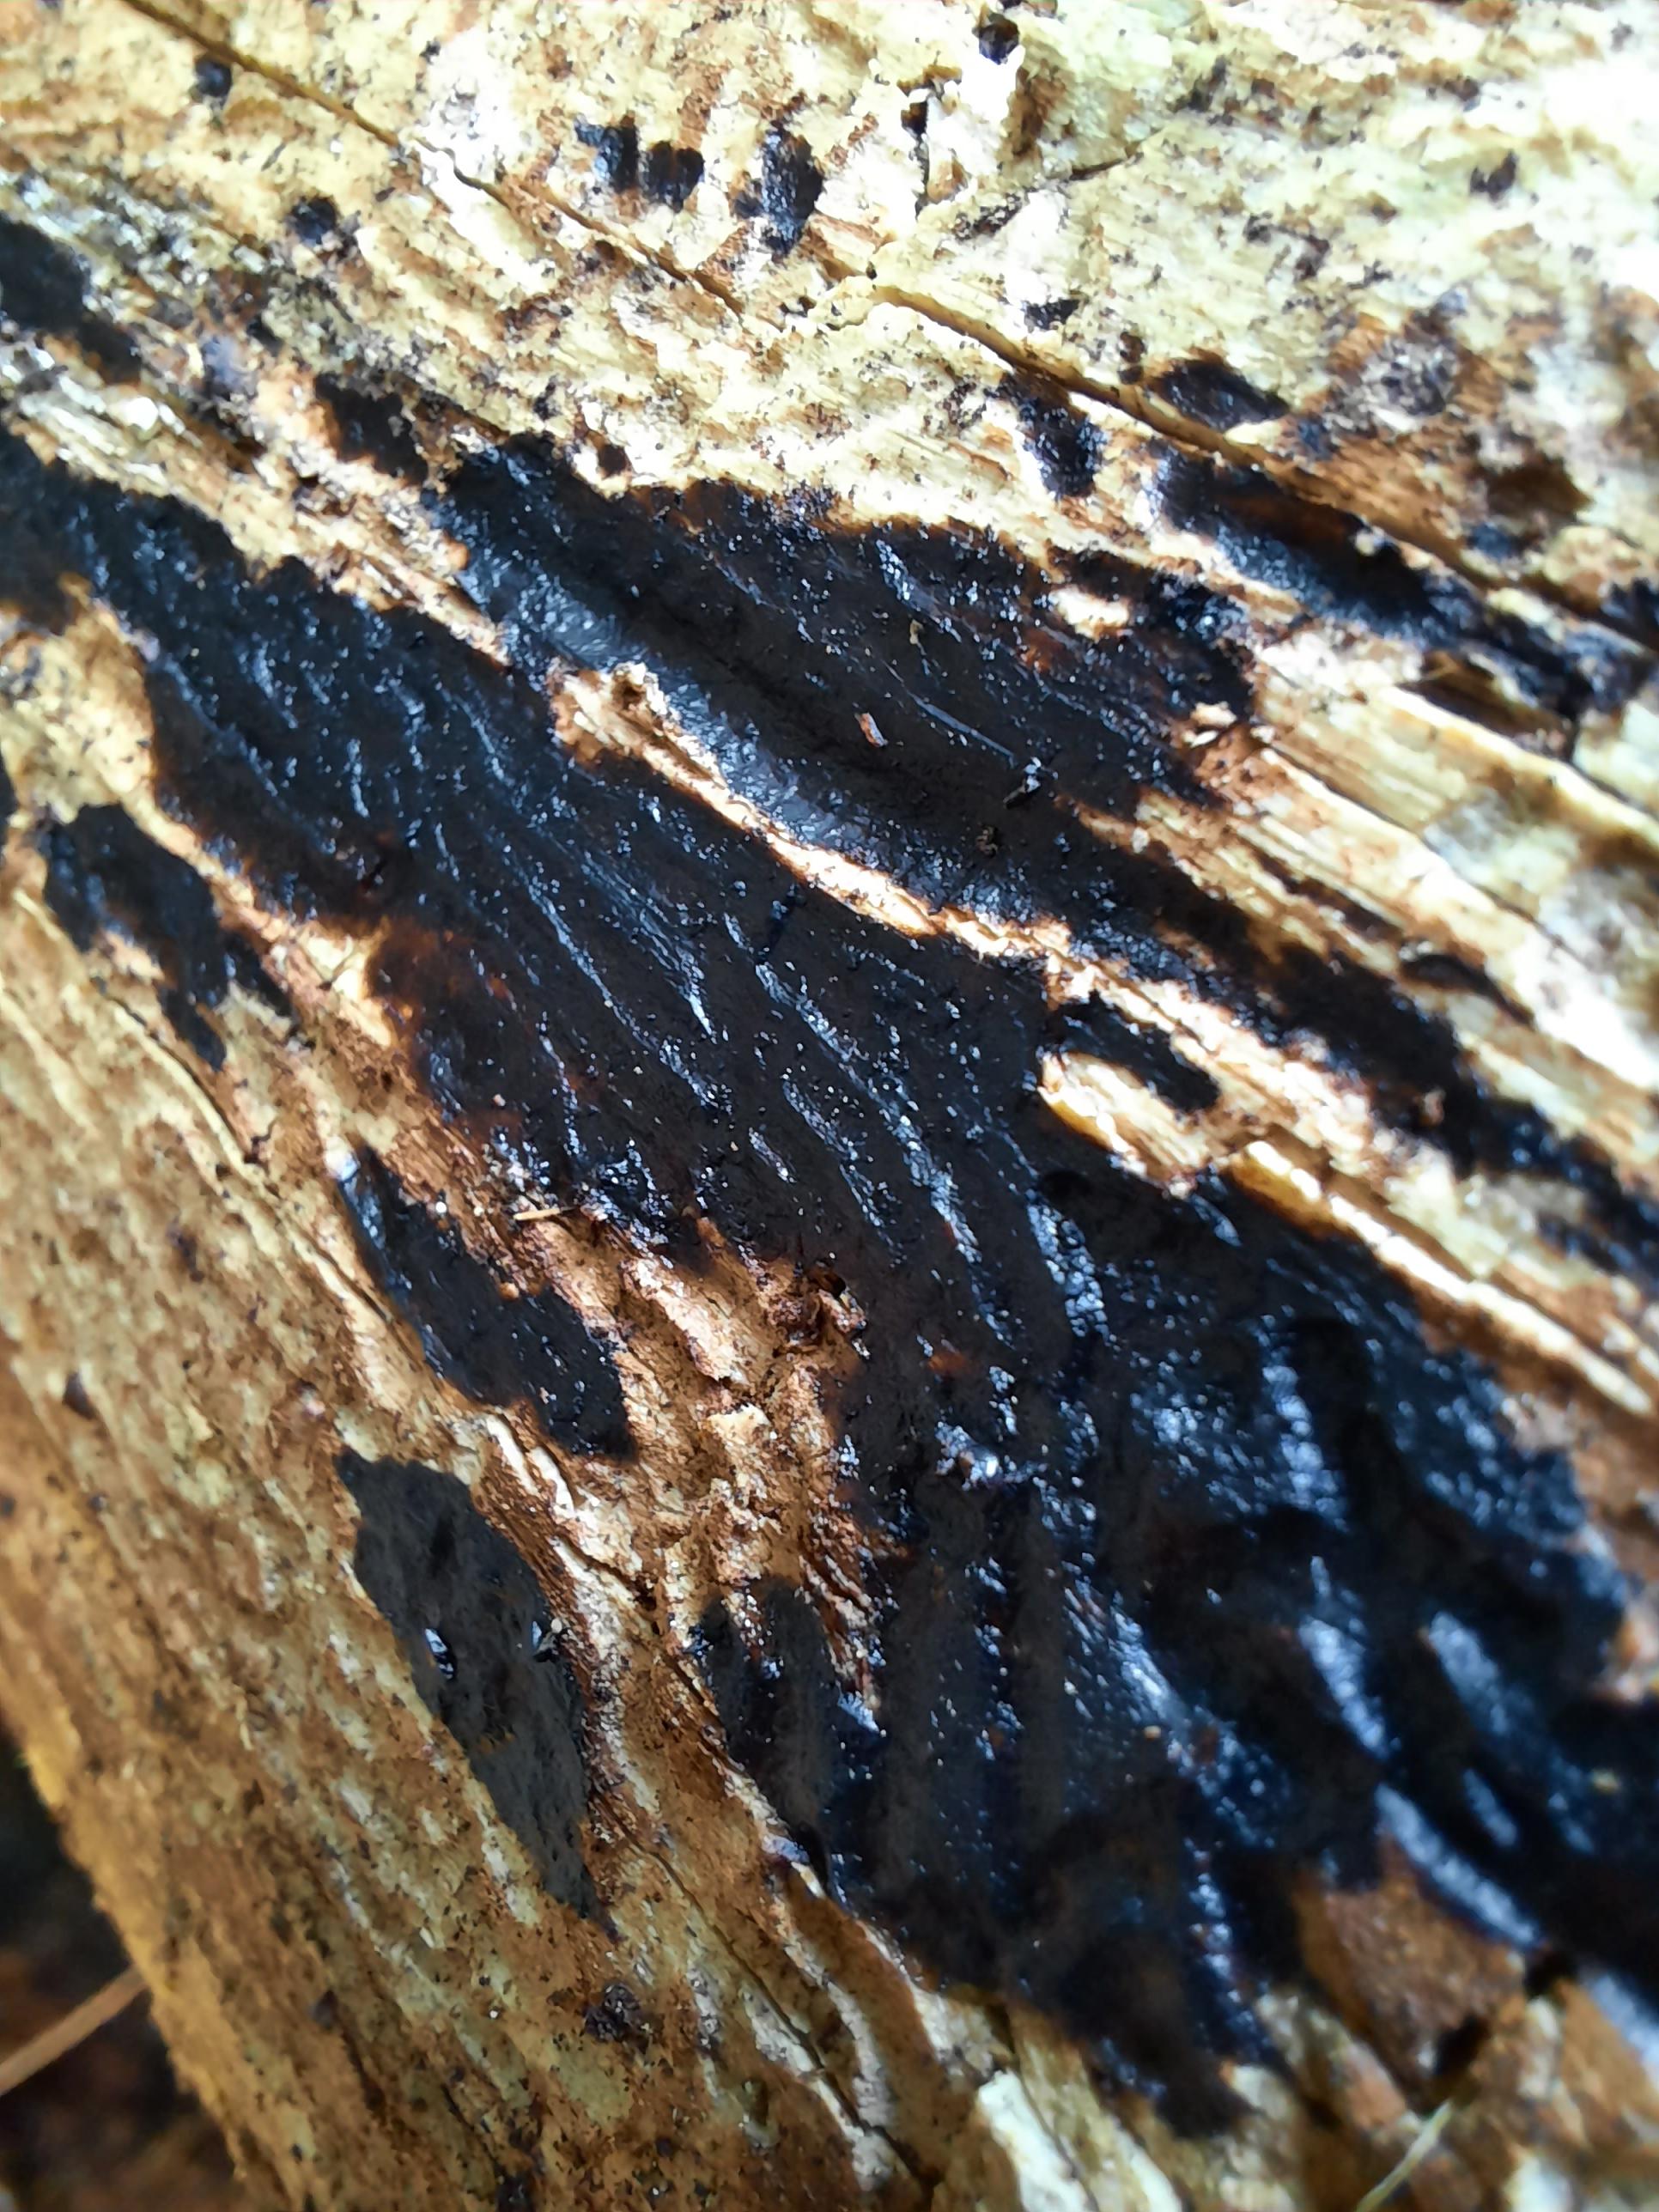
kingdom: Fungi
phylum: Basidiomycota
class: Agaricomycetes
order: Auriculariales
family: Auriculariaceae
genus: Exidia
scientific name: Exidia pithya
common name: gran-bævretop
